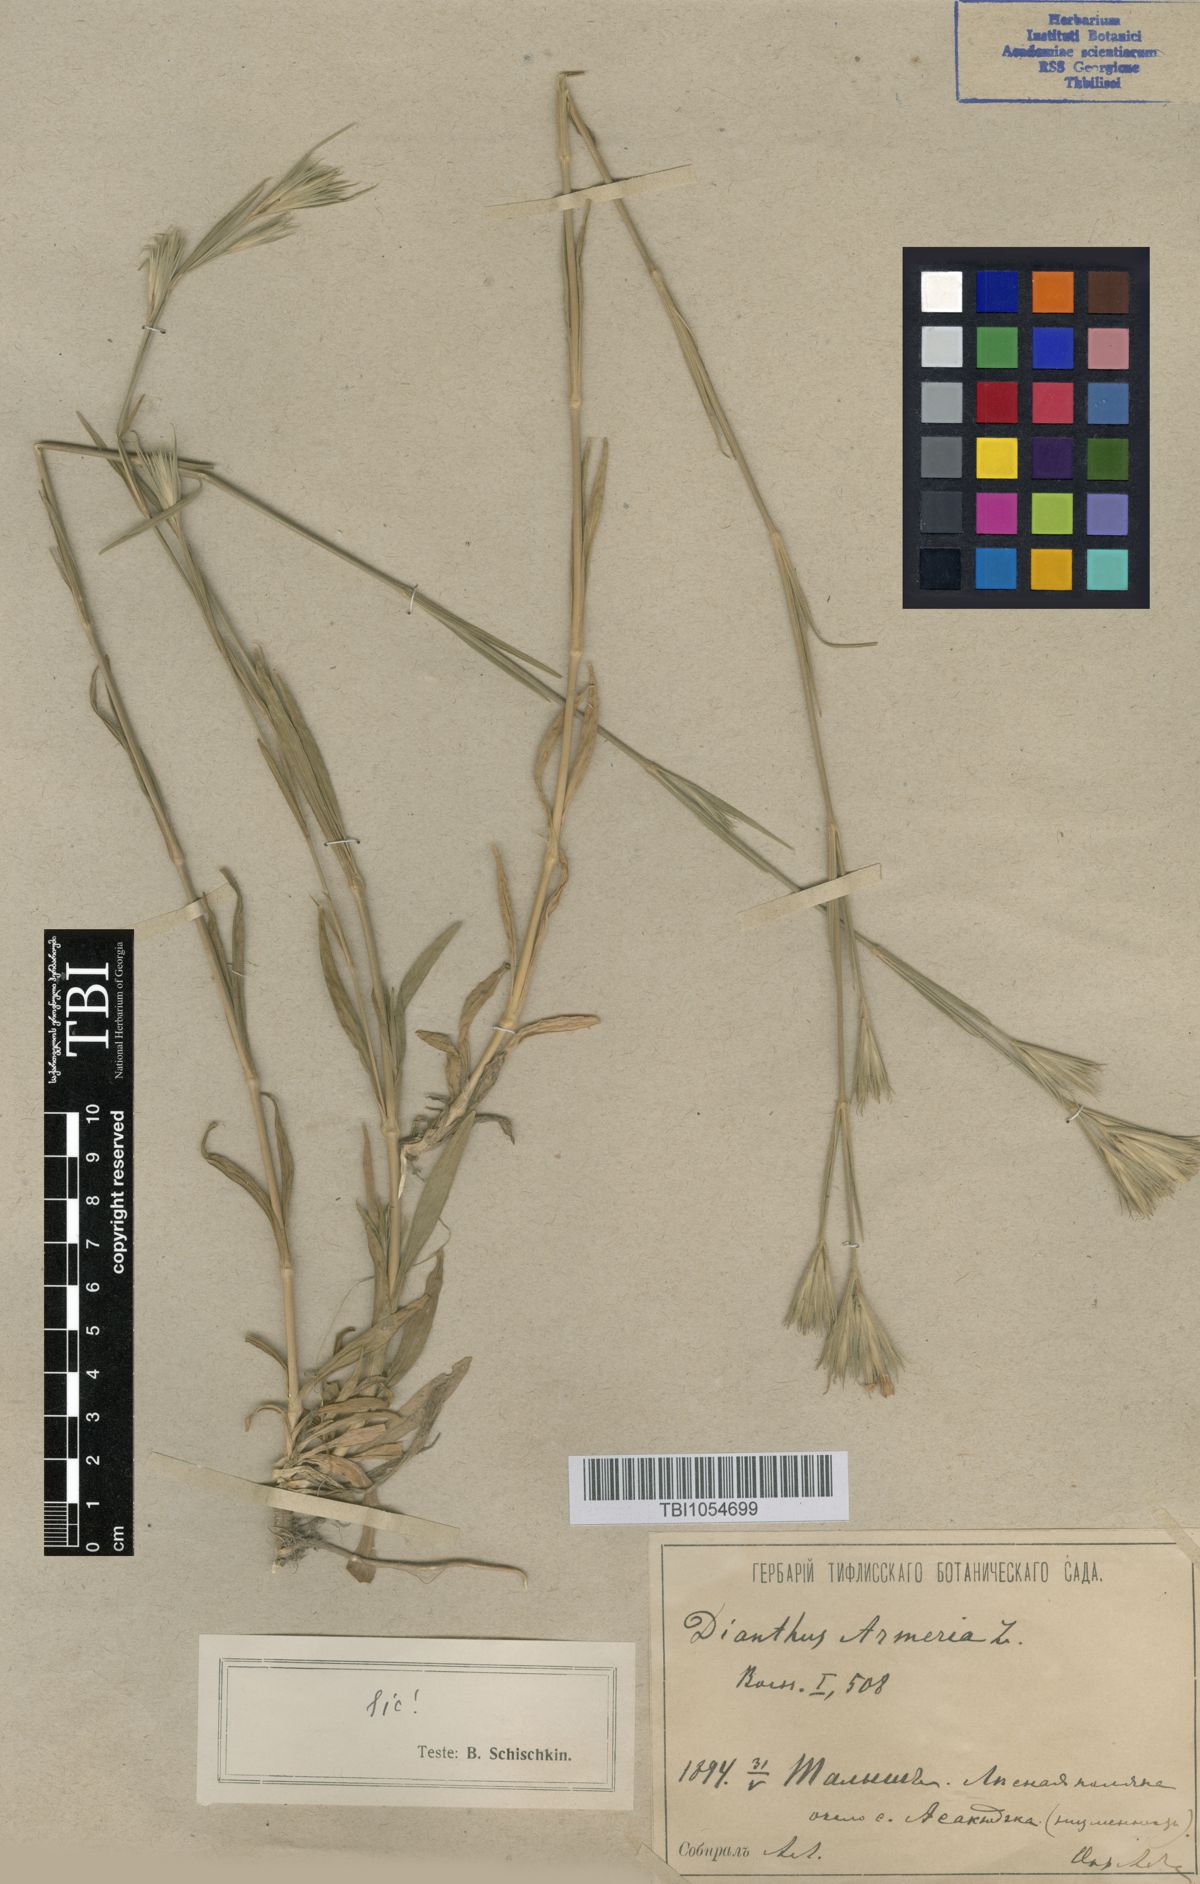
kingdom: Plantae
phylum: Tracheophyta
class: Magnoliopsida
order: Caryophyllales
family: Caryophyllaceae
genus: Dianthus
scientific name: Dianthus armeria
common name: Deptford pink
